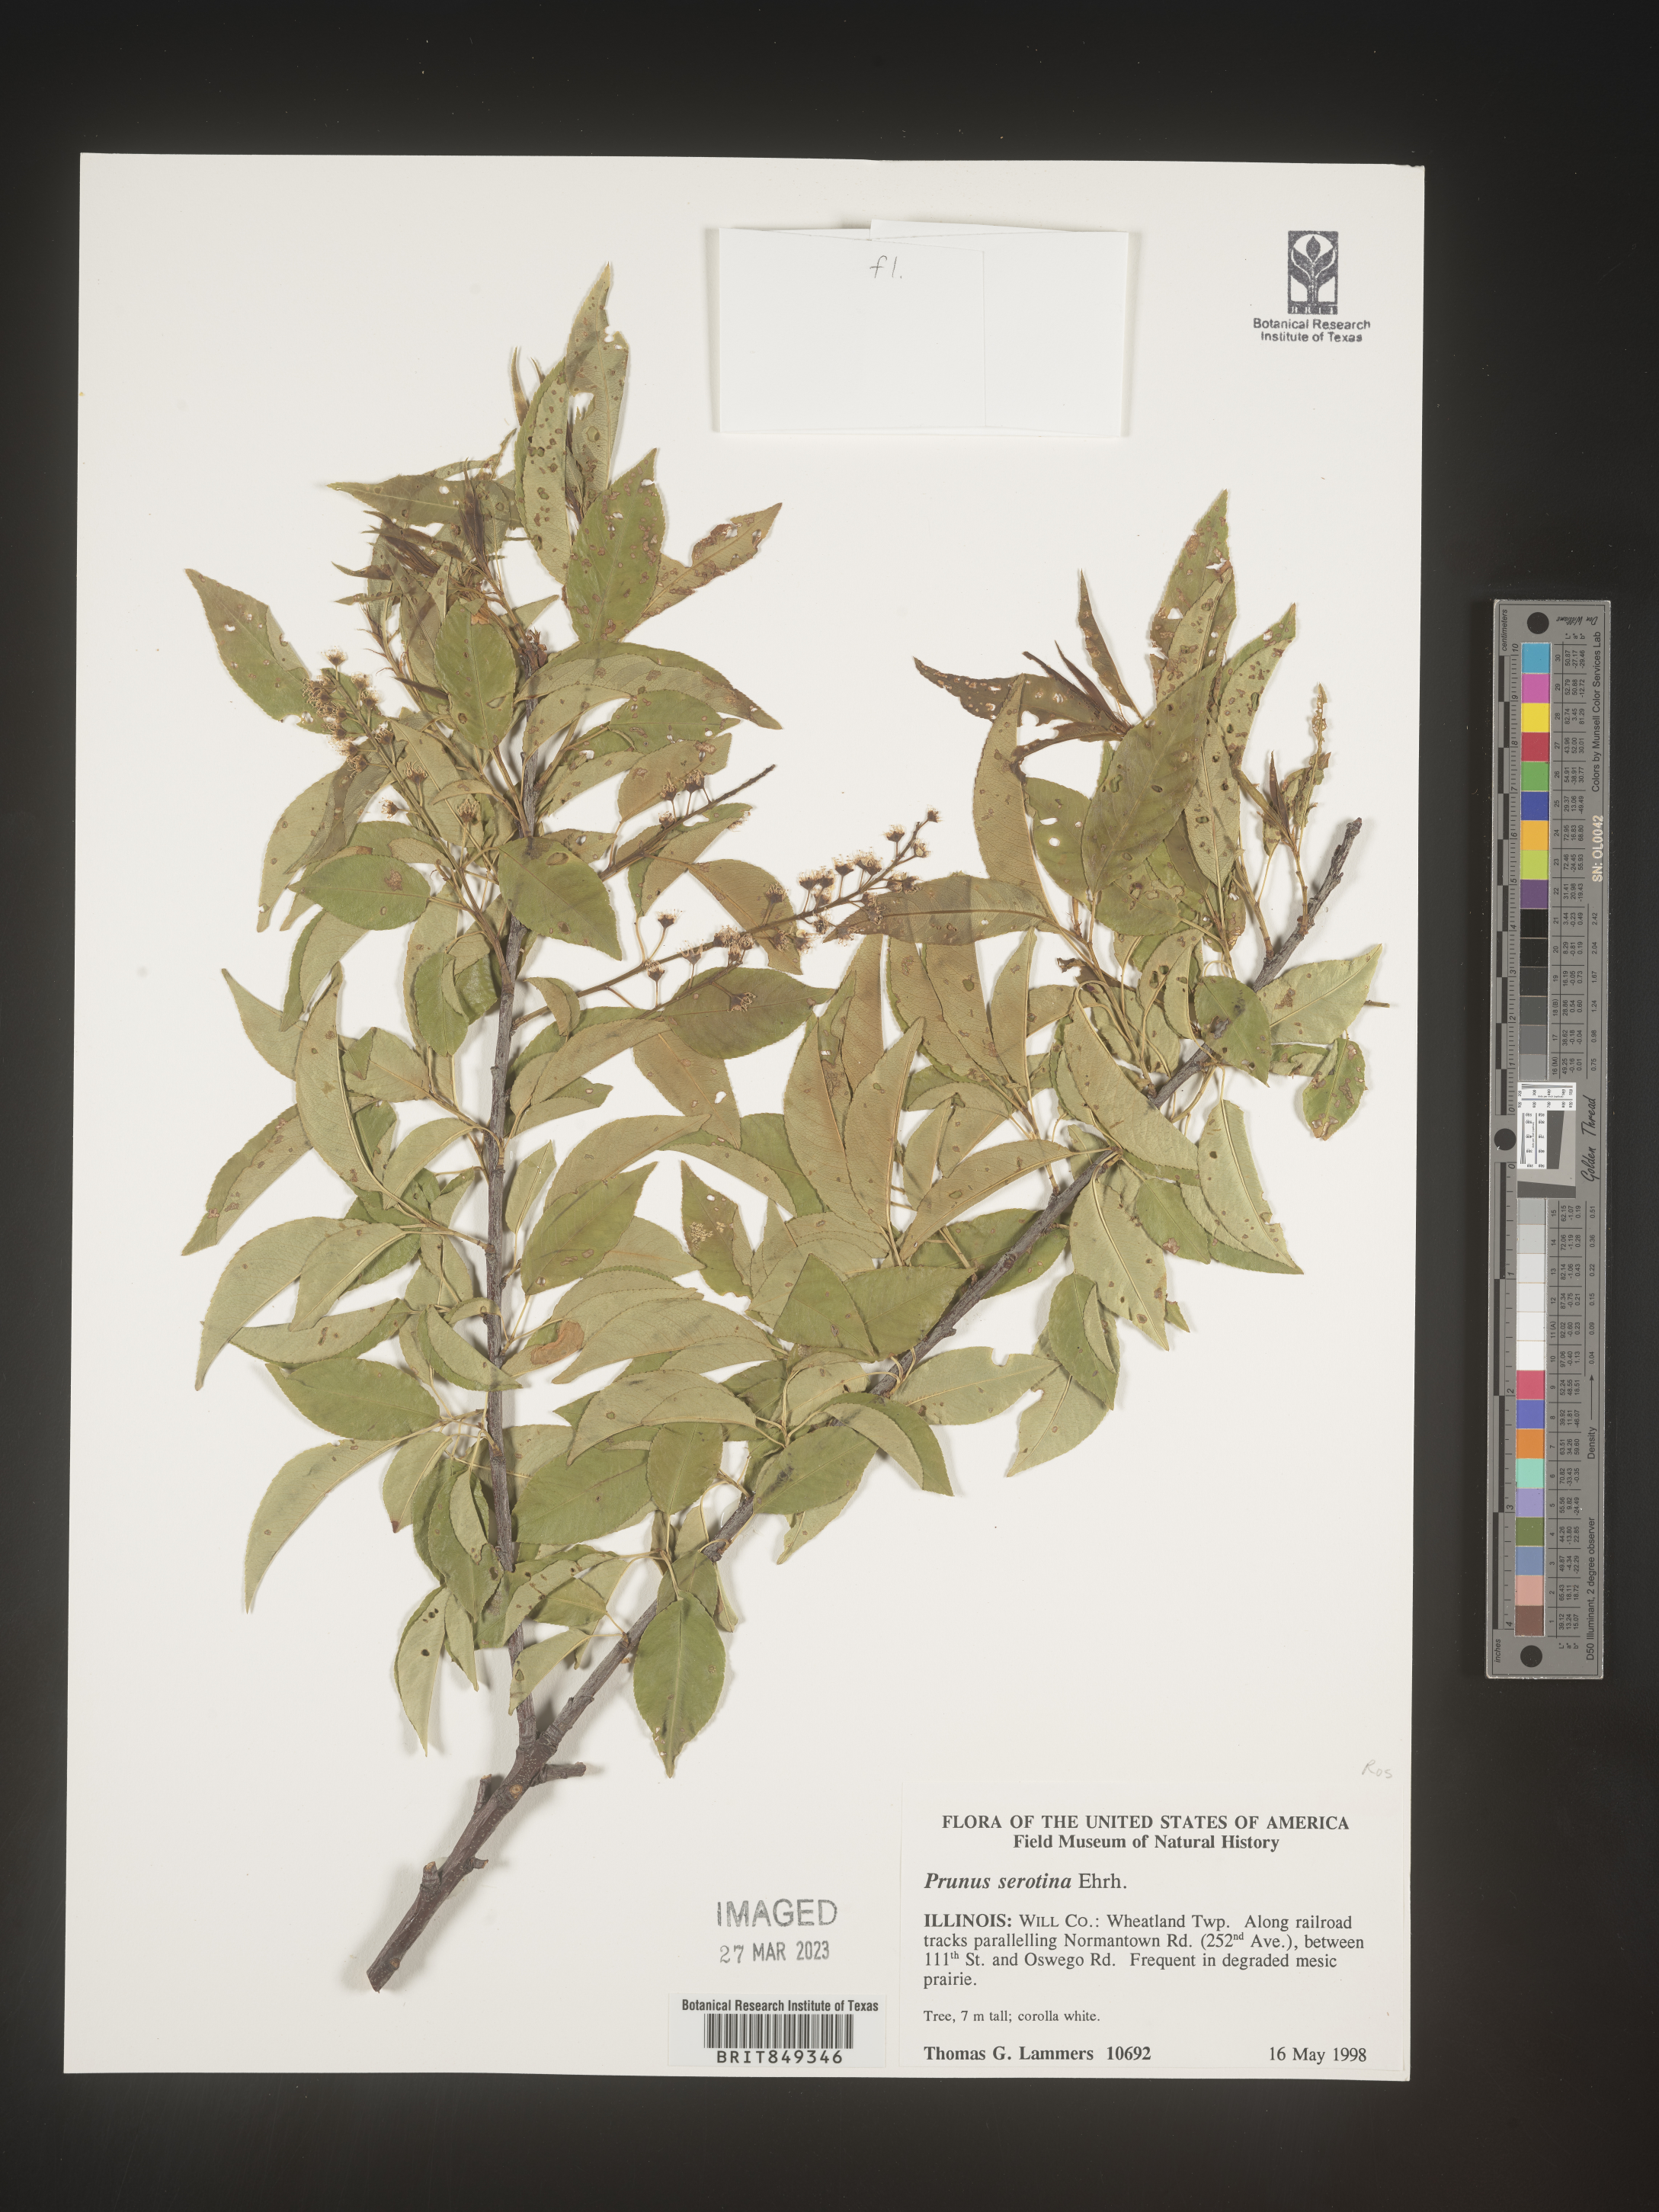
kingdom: Plantae
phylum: Tracheophyta
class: Magnoliopsida
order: Rosales
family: Rosaceae
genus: Prunus
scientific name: Prunus serotina
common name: Black cherry
